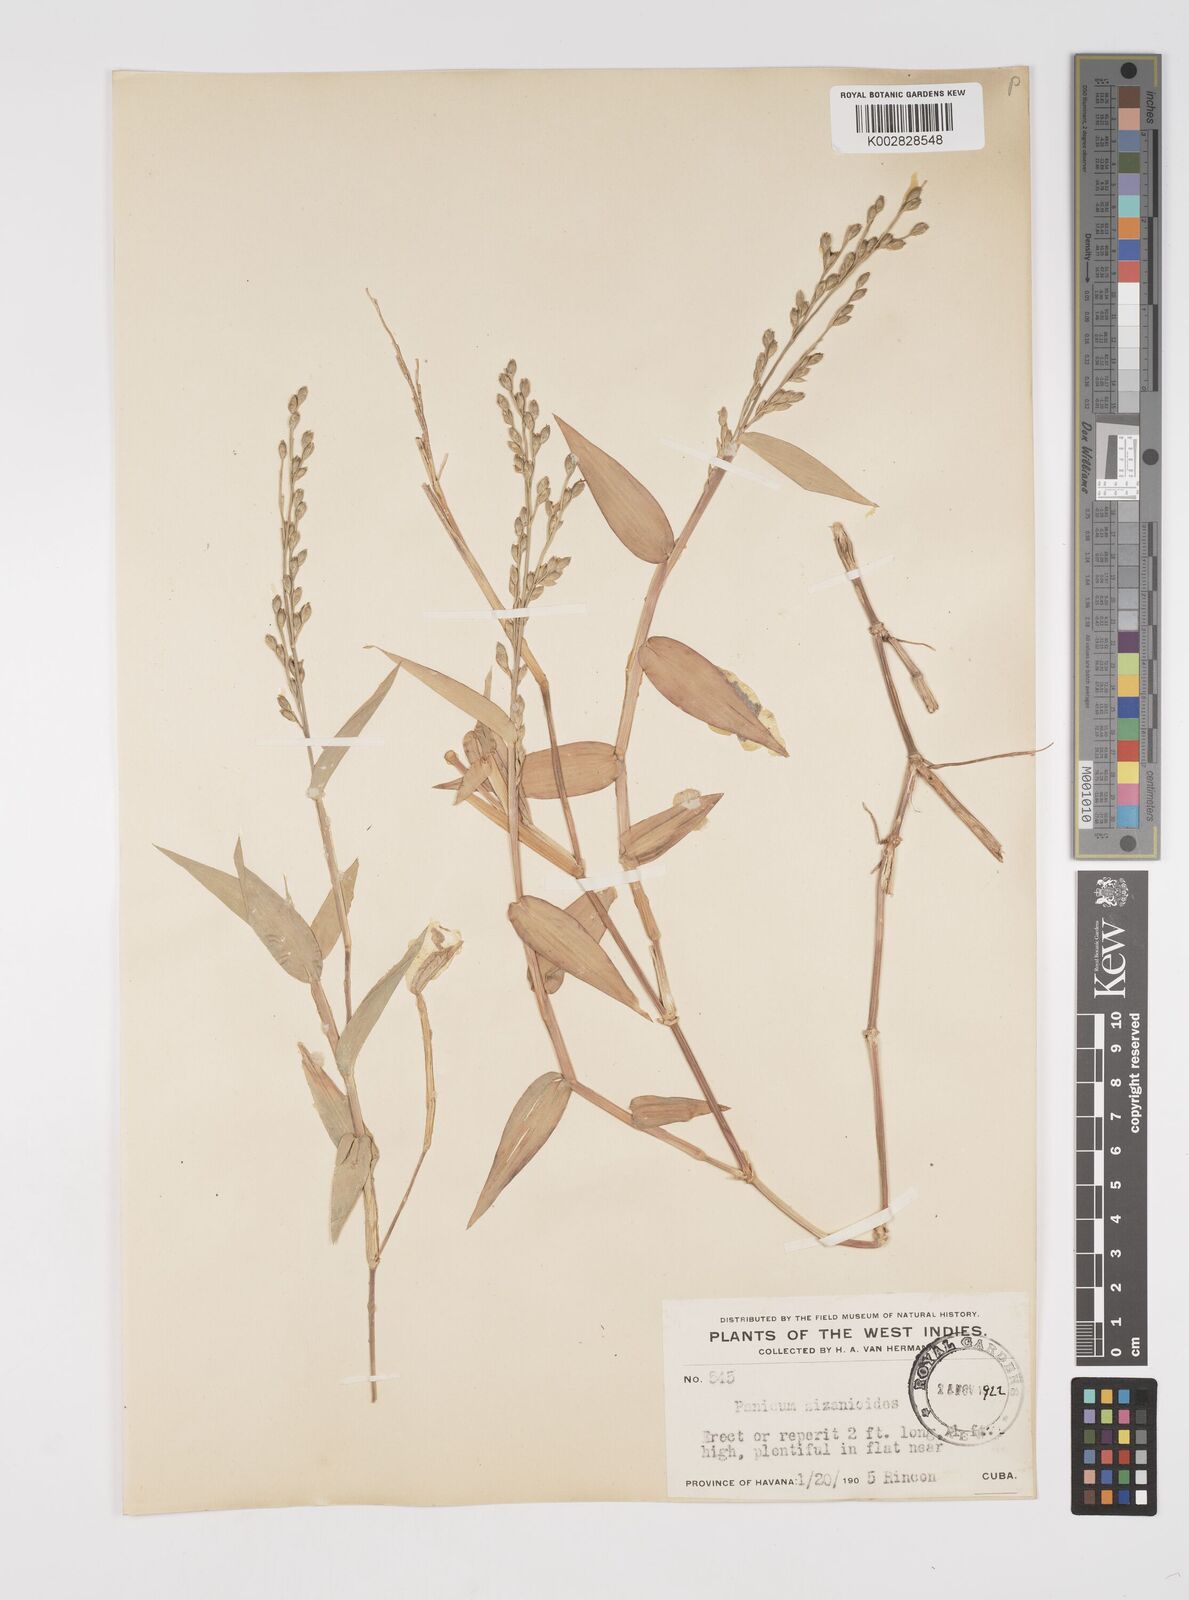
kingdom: Plantae
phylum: Tracheophyta
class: Liliopsida
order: Poales
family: Poaceae
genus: Acroceras
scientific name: Acroceras zizanioides
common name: Oat grass
